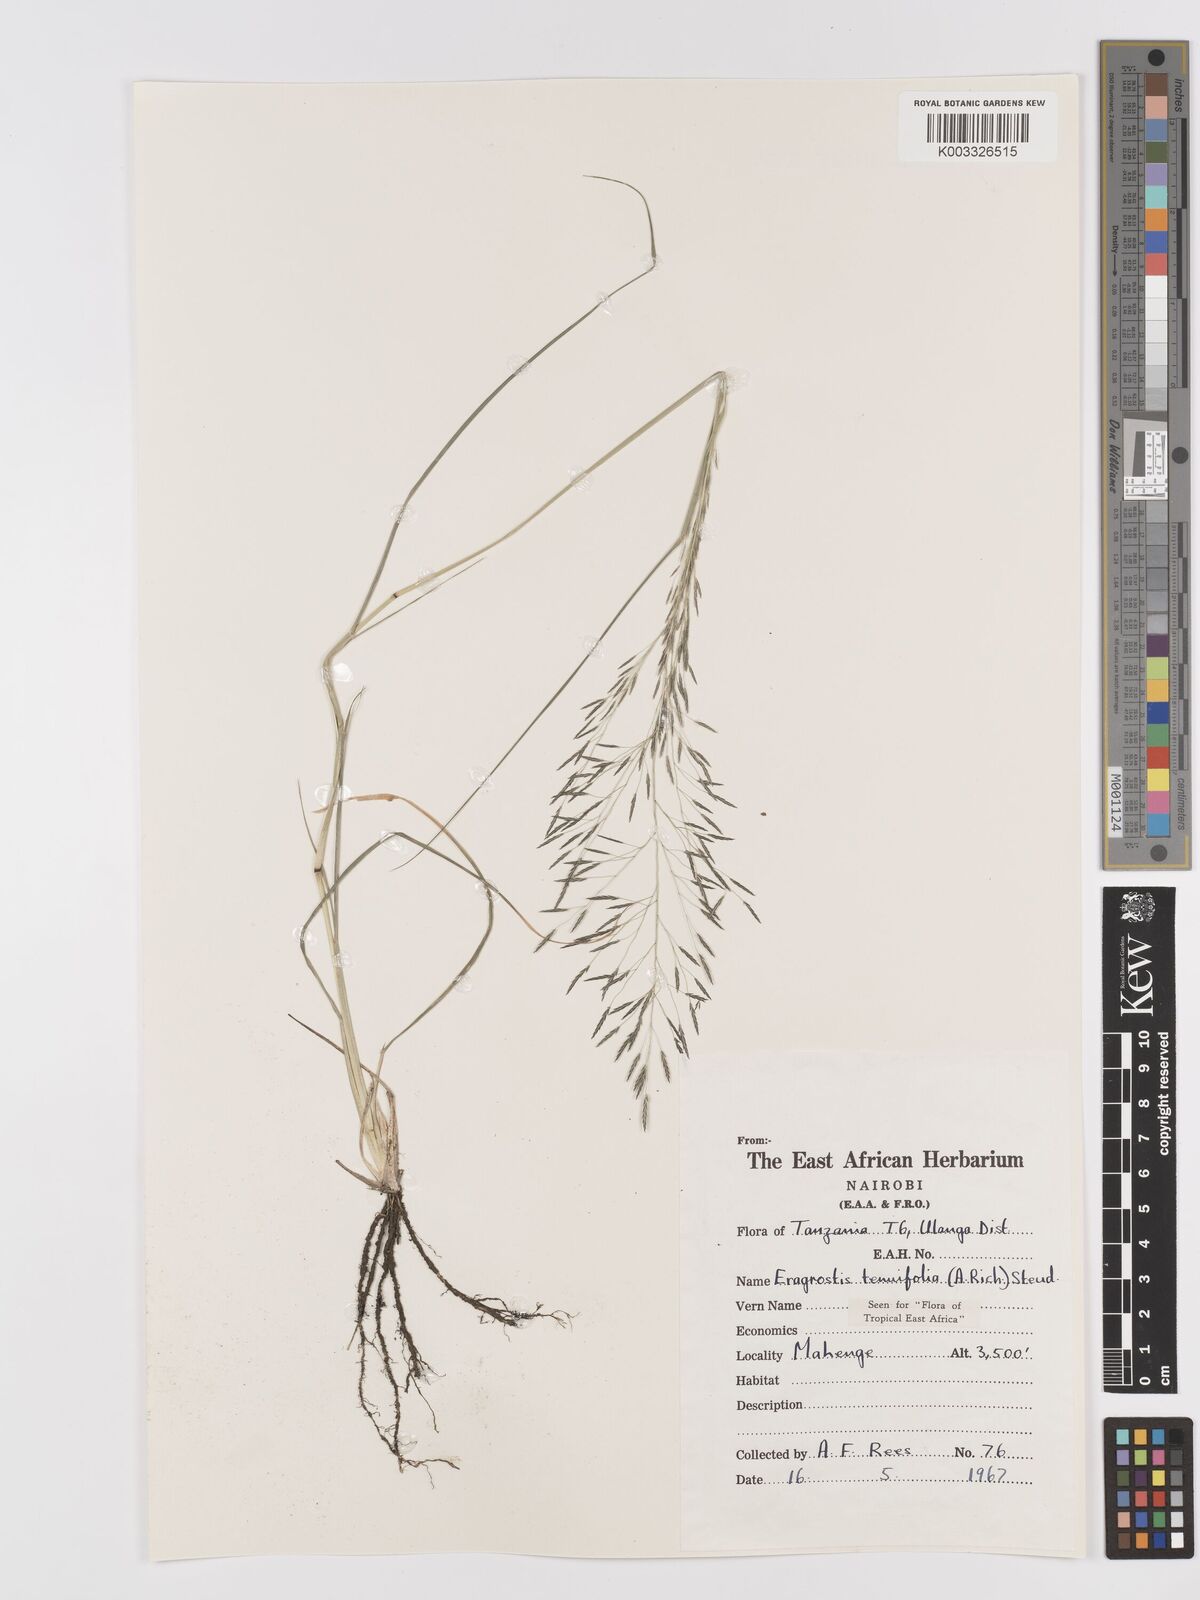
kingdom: Plantae
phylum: Tracheophyta
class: Liliopsida
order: Poales
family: Poaceae
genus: Eragrostis
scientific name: Eragrostis tenuifolia
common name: Elastic grass
